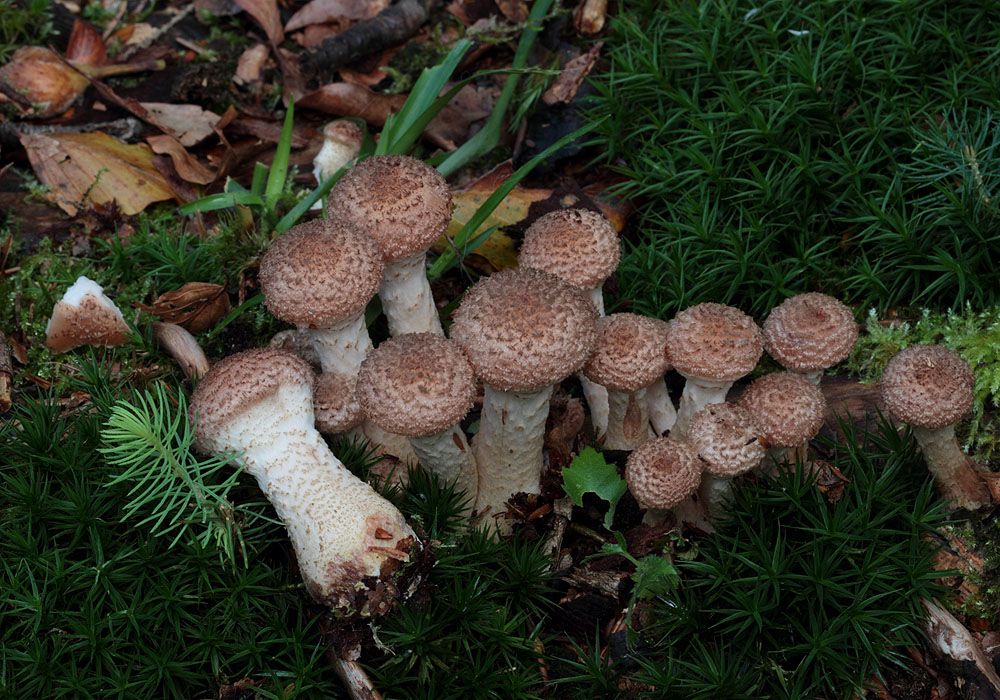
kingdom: Fungi
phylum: Basidiomycota
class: Agaricomycetes
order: Agaricales
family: Physalacriaceae
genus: Armillaria
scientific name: Armillaria ostoyae
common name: mørk honningsvamp
